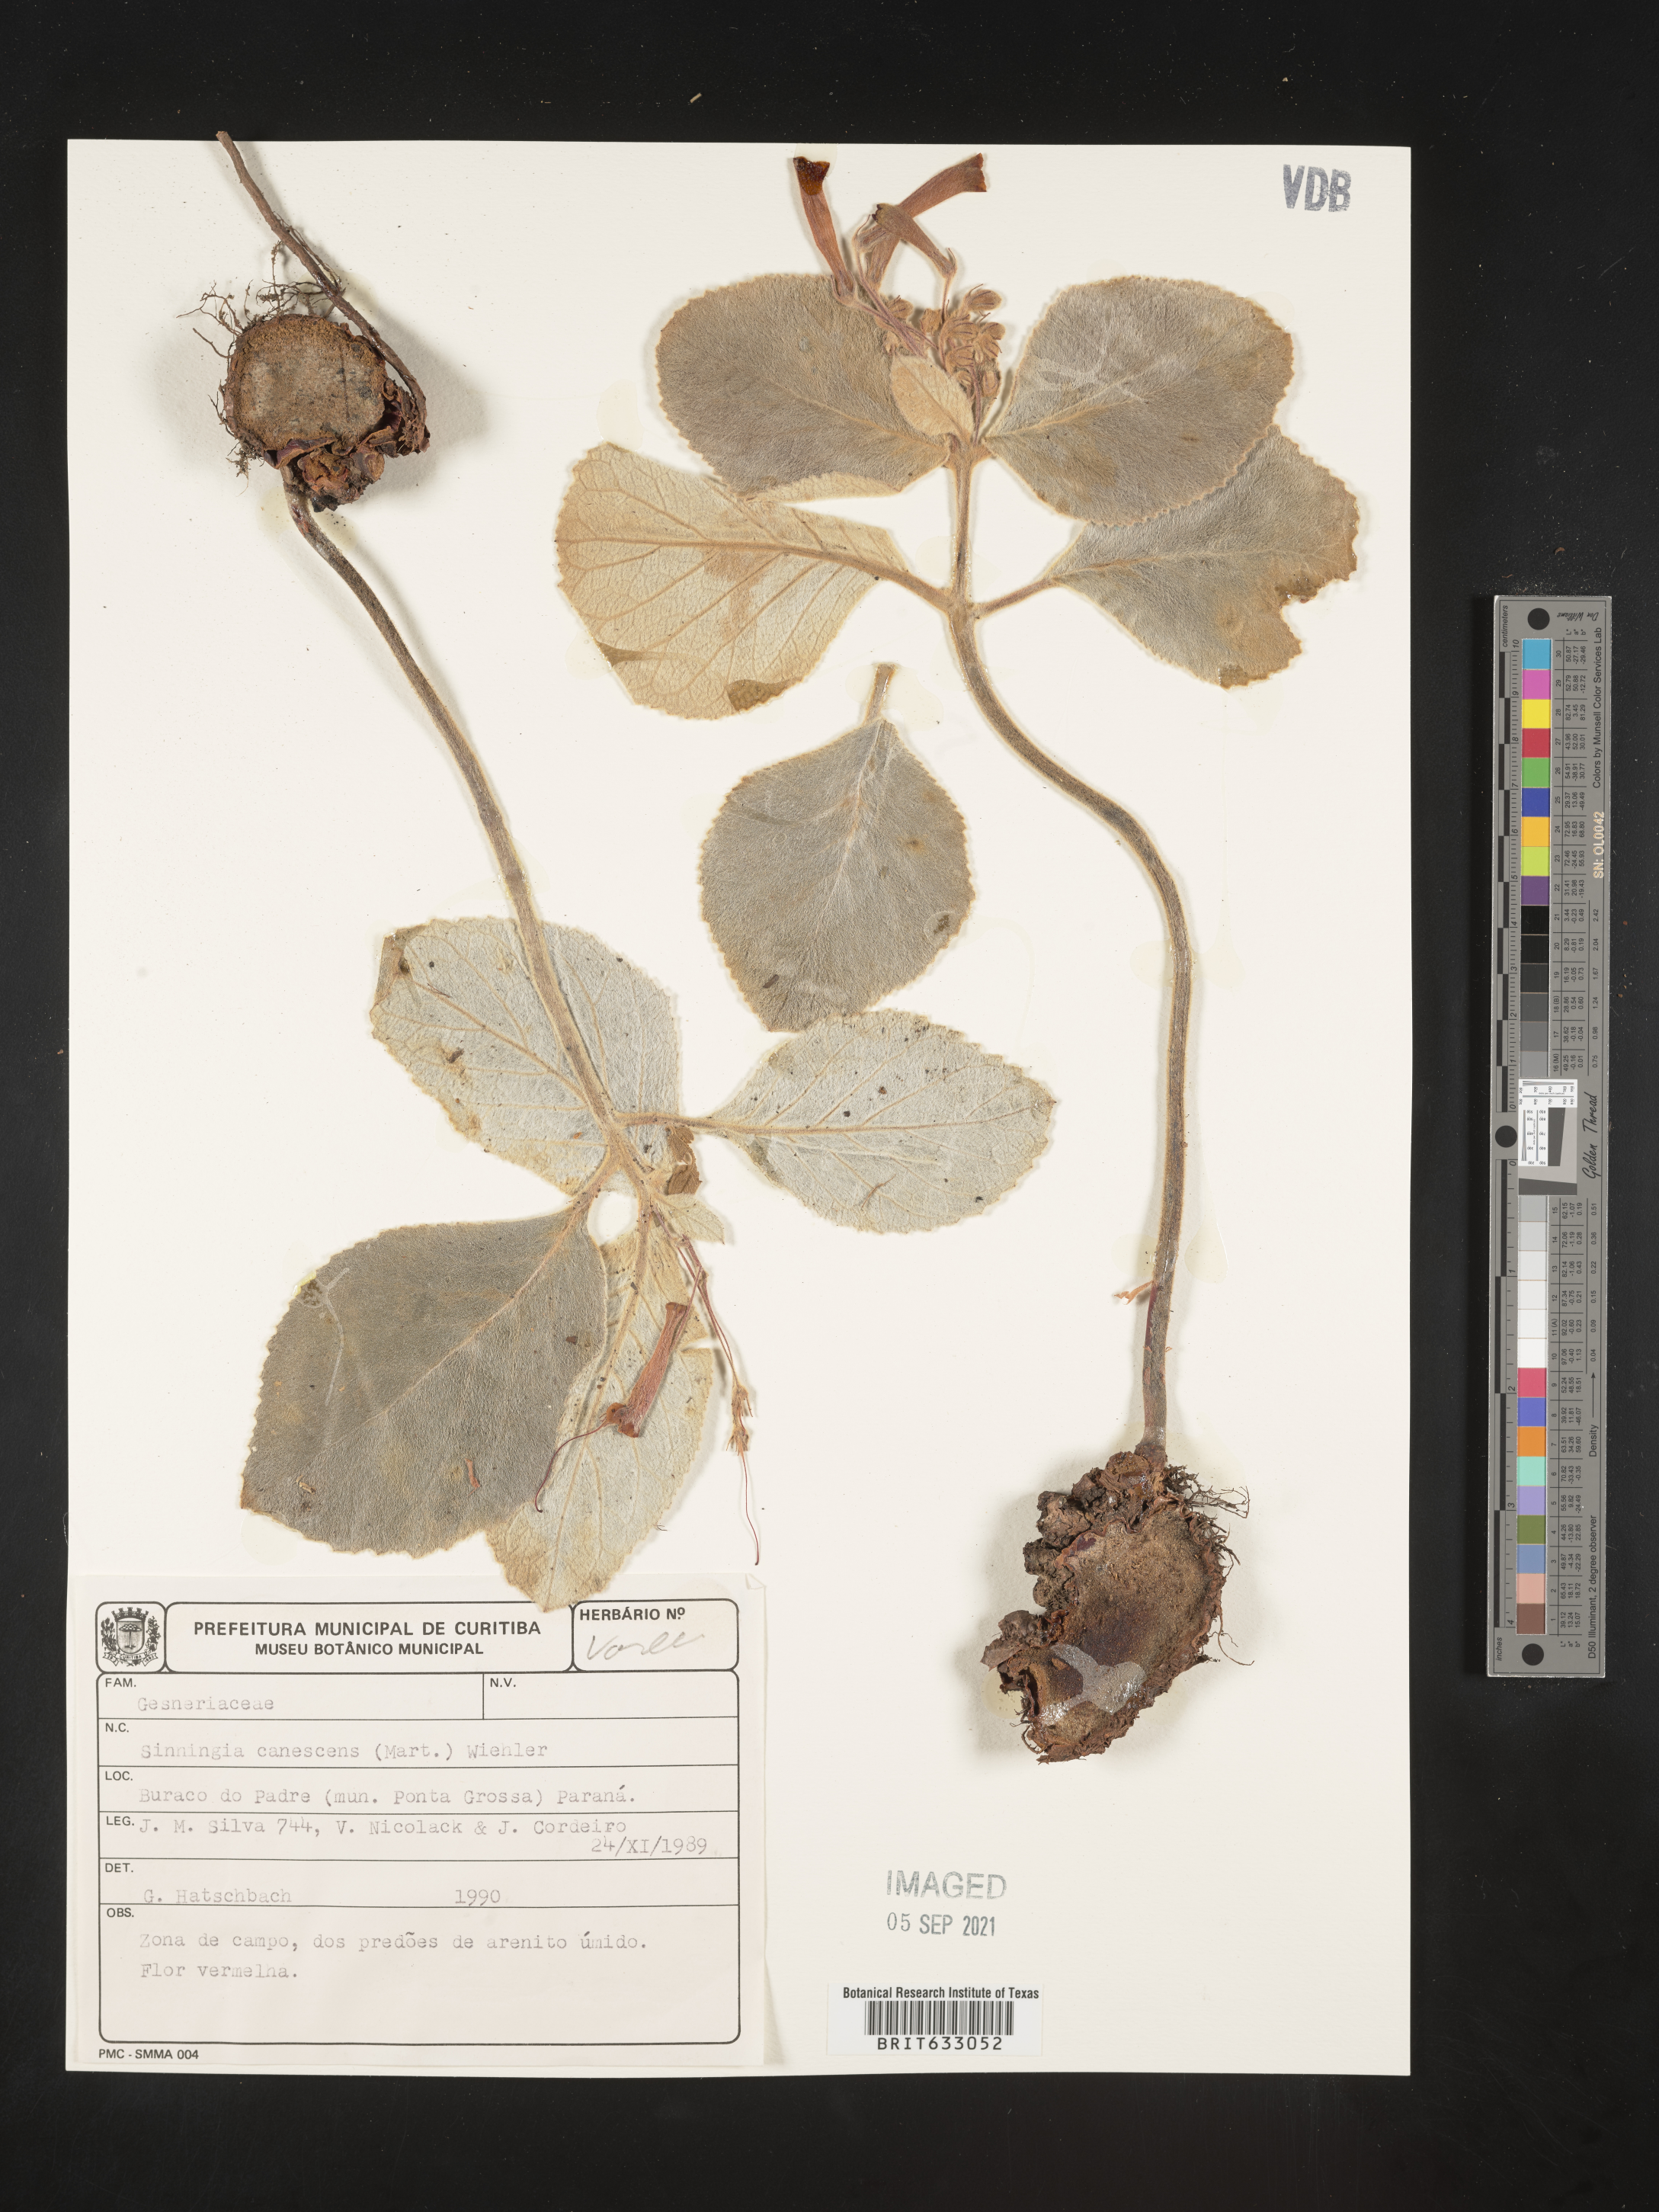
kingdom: Plantae
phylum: Tracheophyta
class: Magnoliopsida
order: Lamiales
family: Gesneriaceae
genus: Sinningia
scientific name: Sinningia
